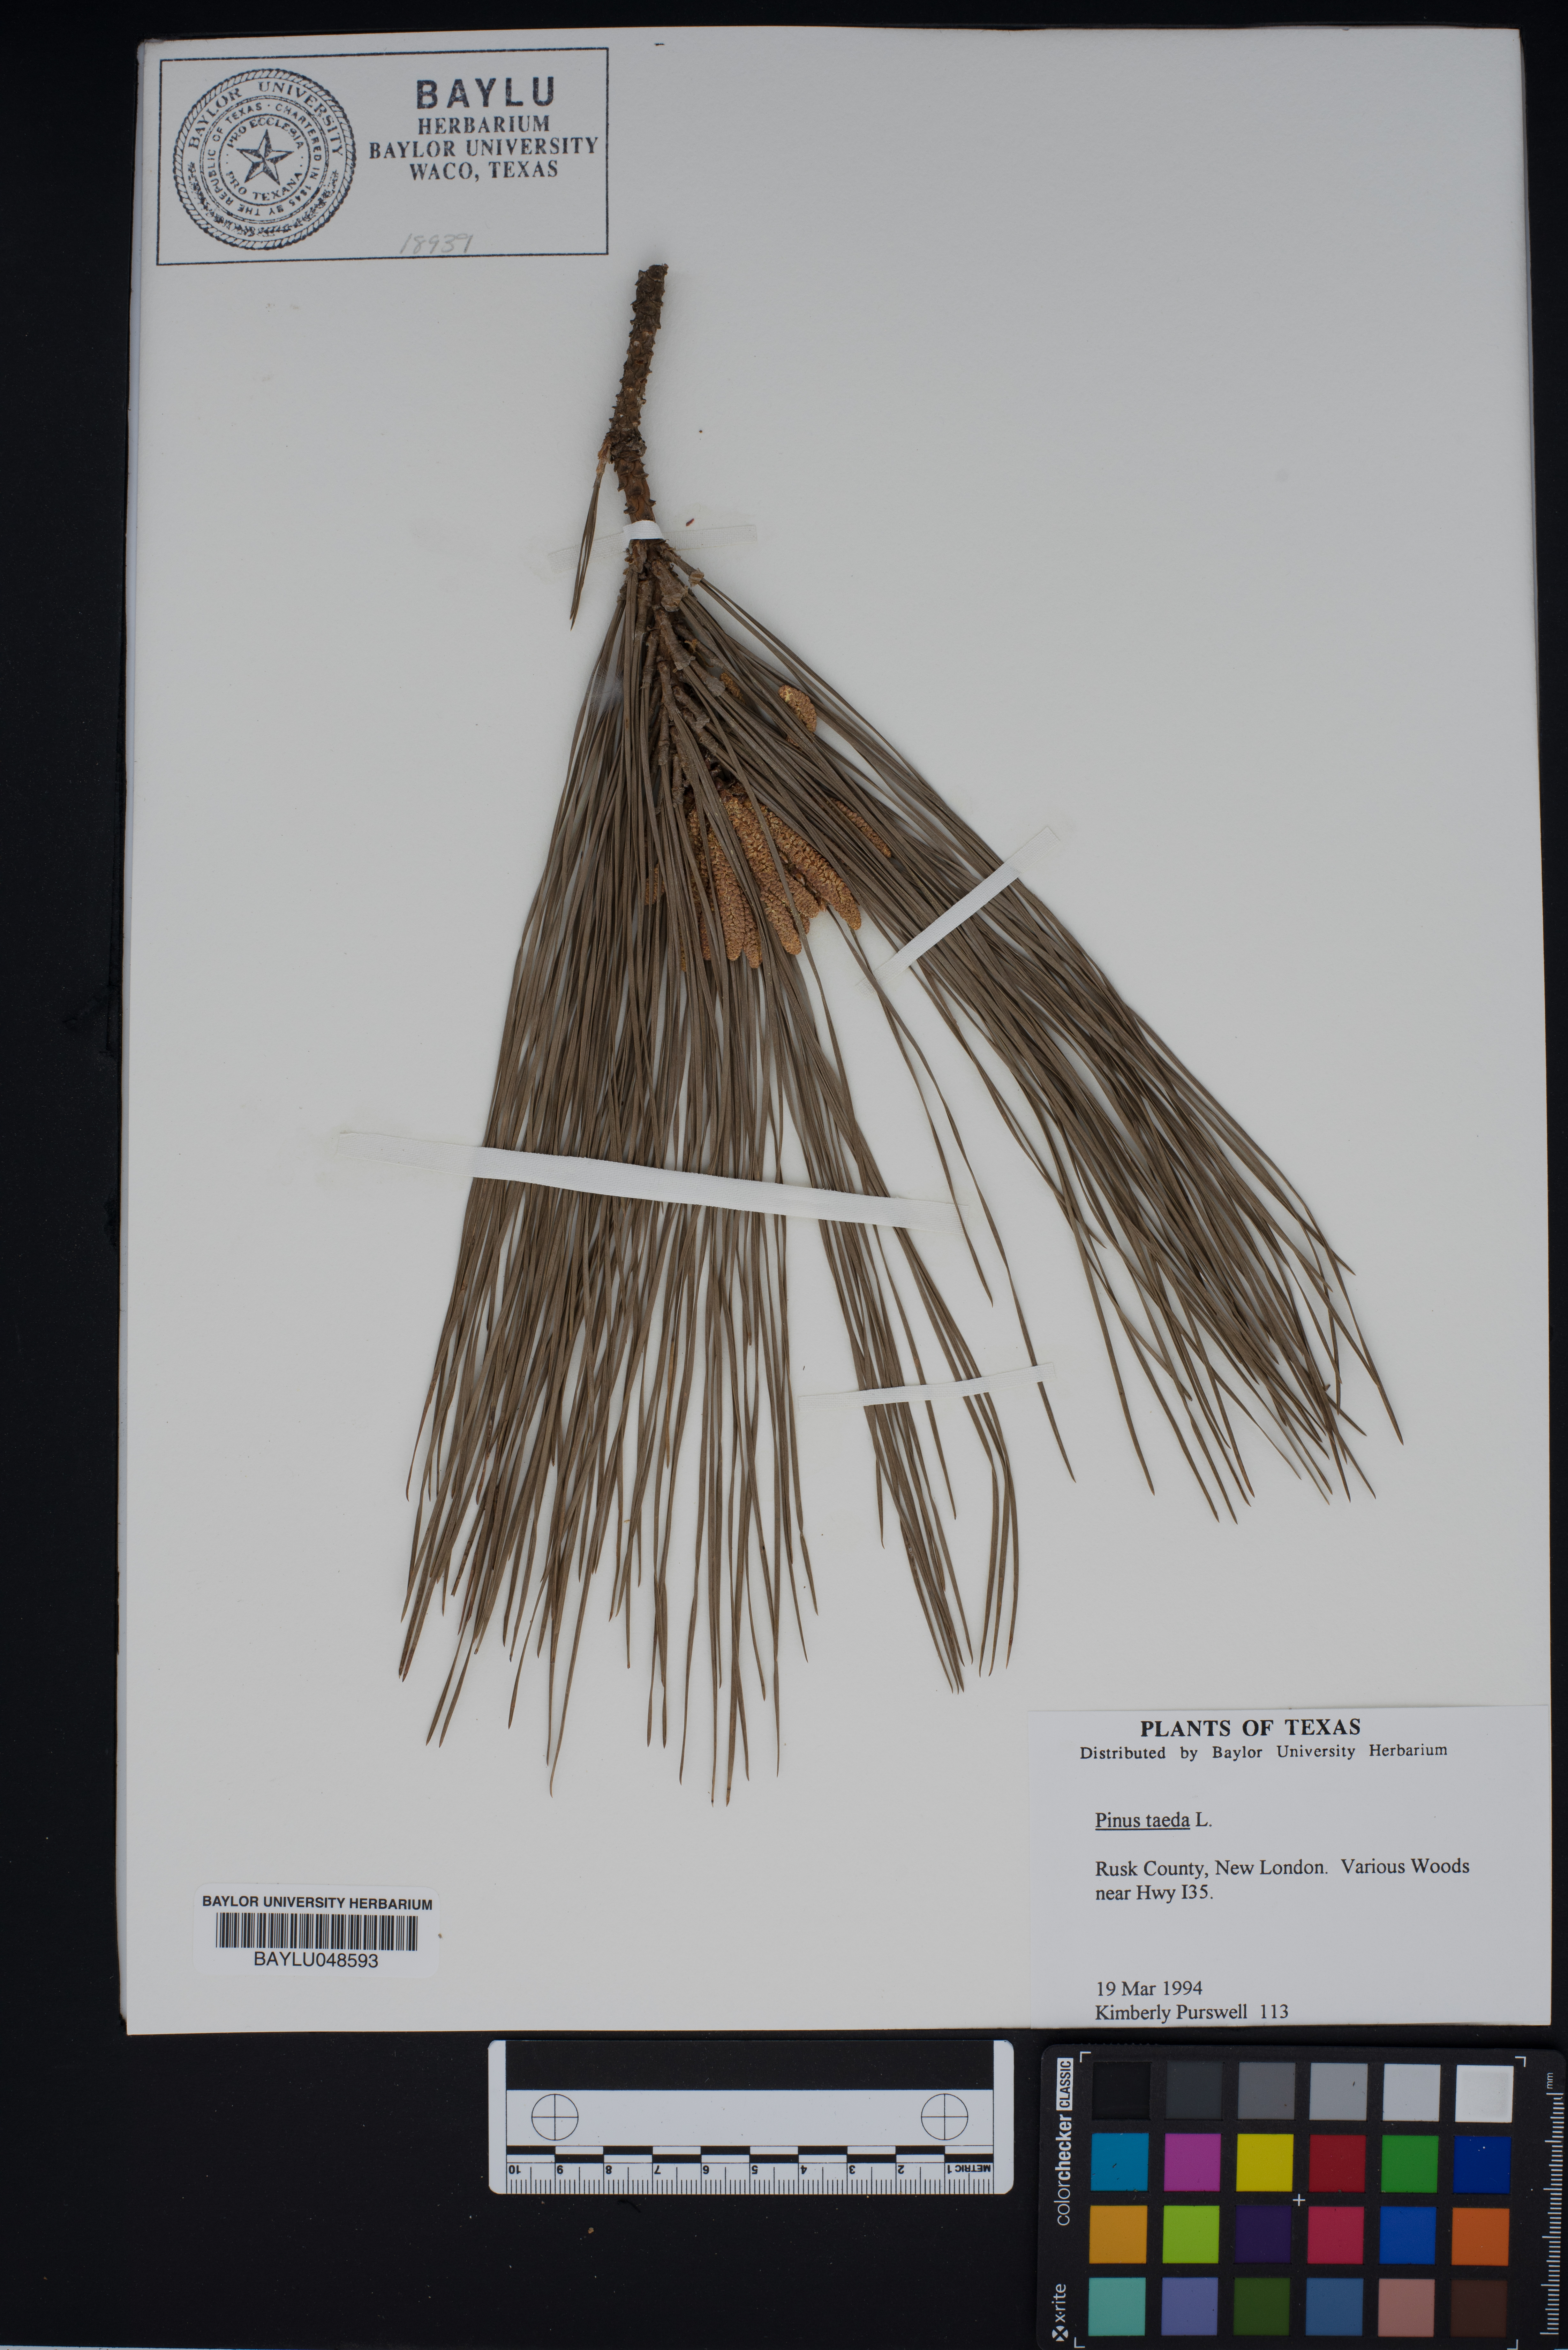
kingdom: Plantae
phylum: Tracheophyta
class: Pinopsida
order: Pinales
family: Pinaceae
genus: Pinus
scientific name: Pinus taeda
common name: Loblolly pine
